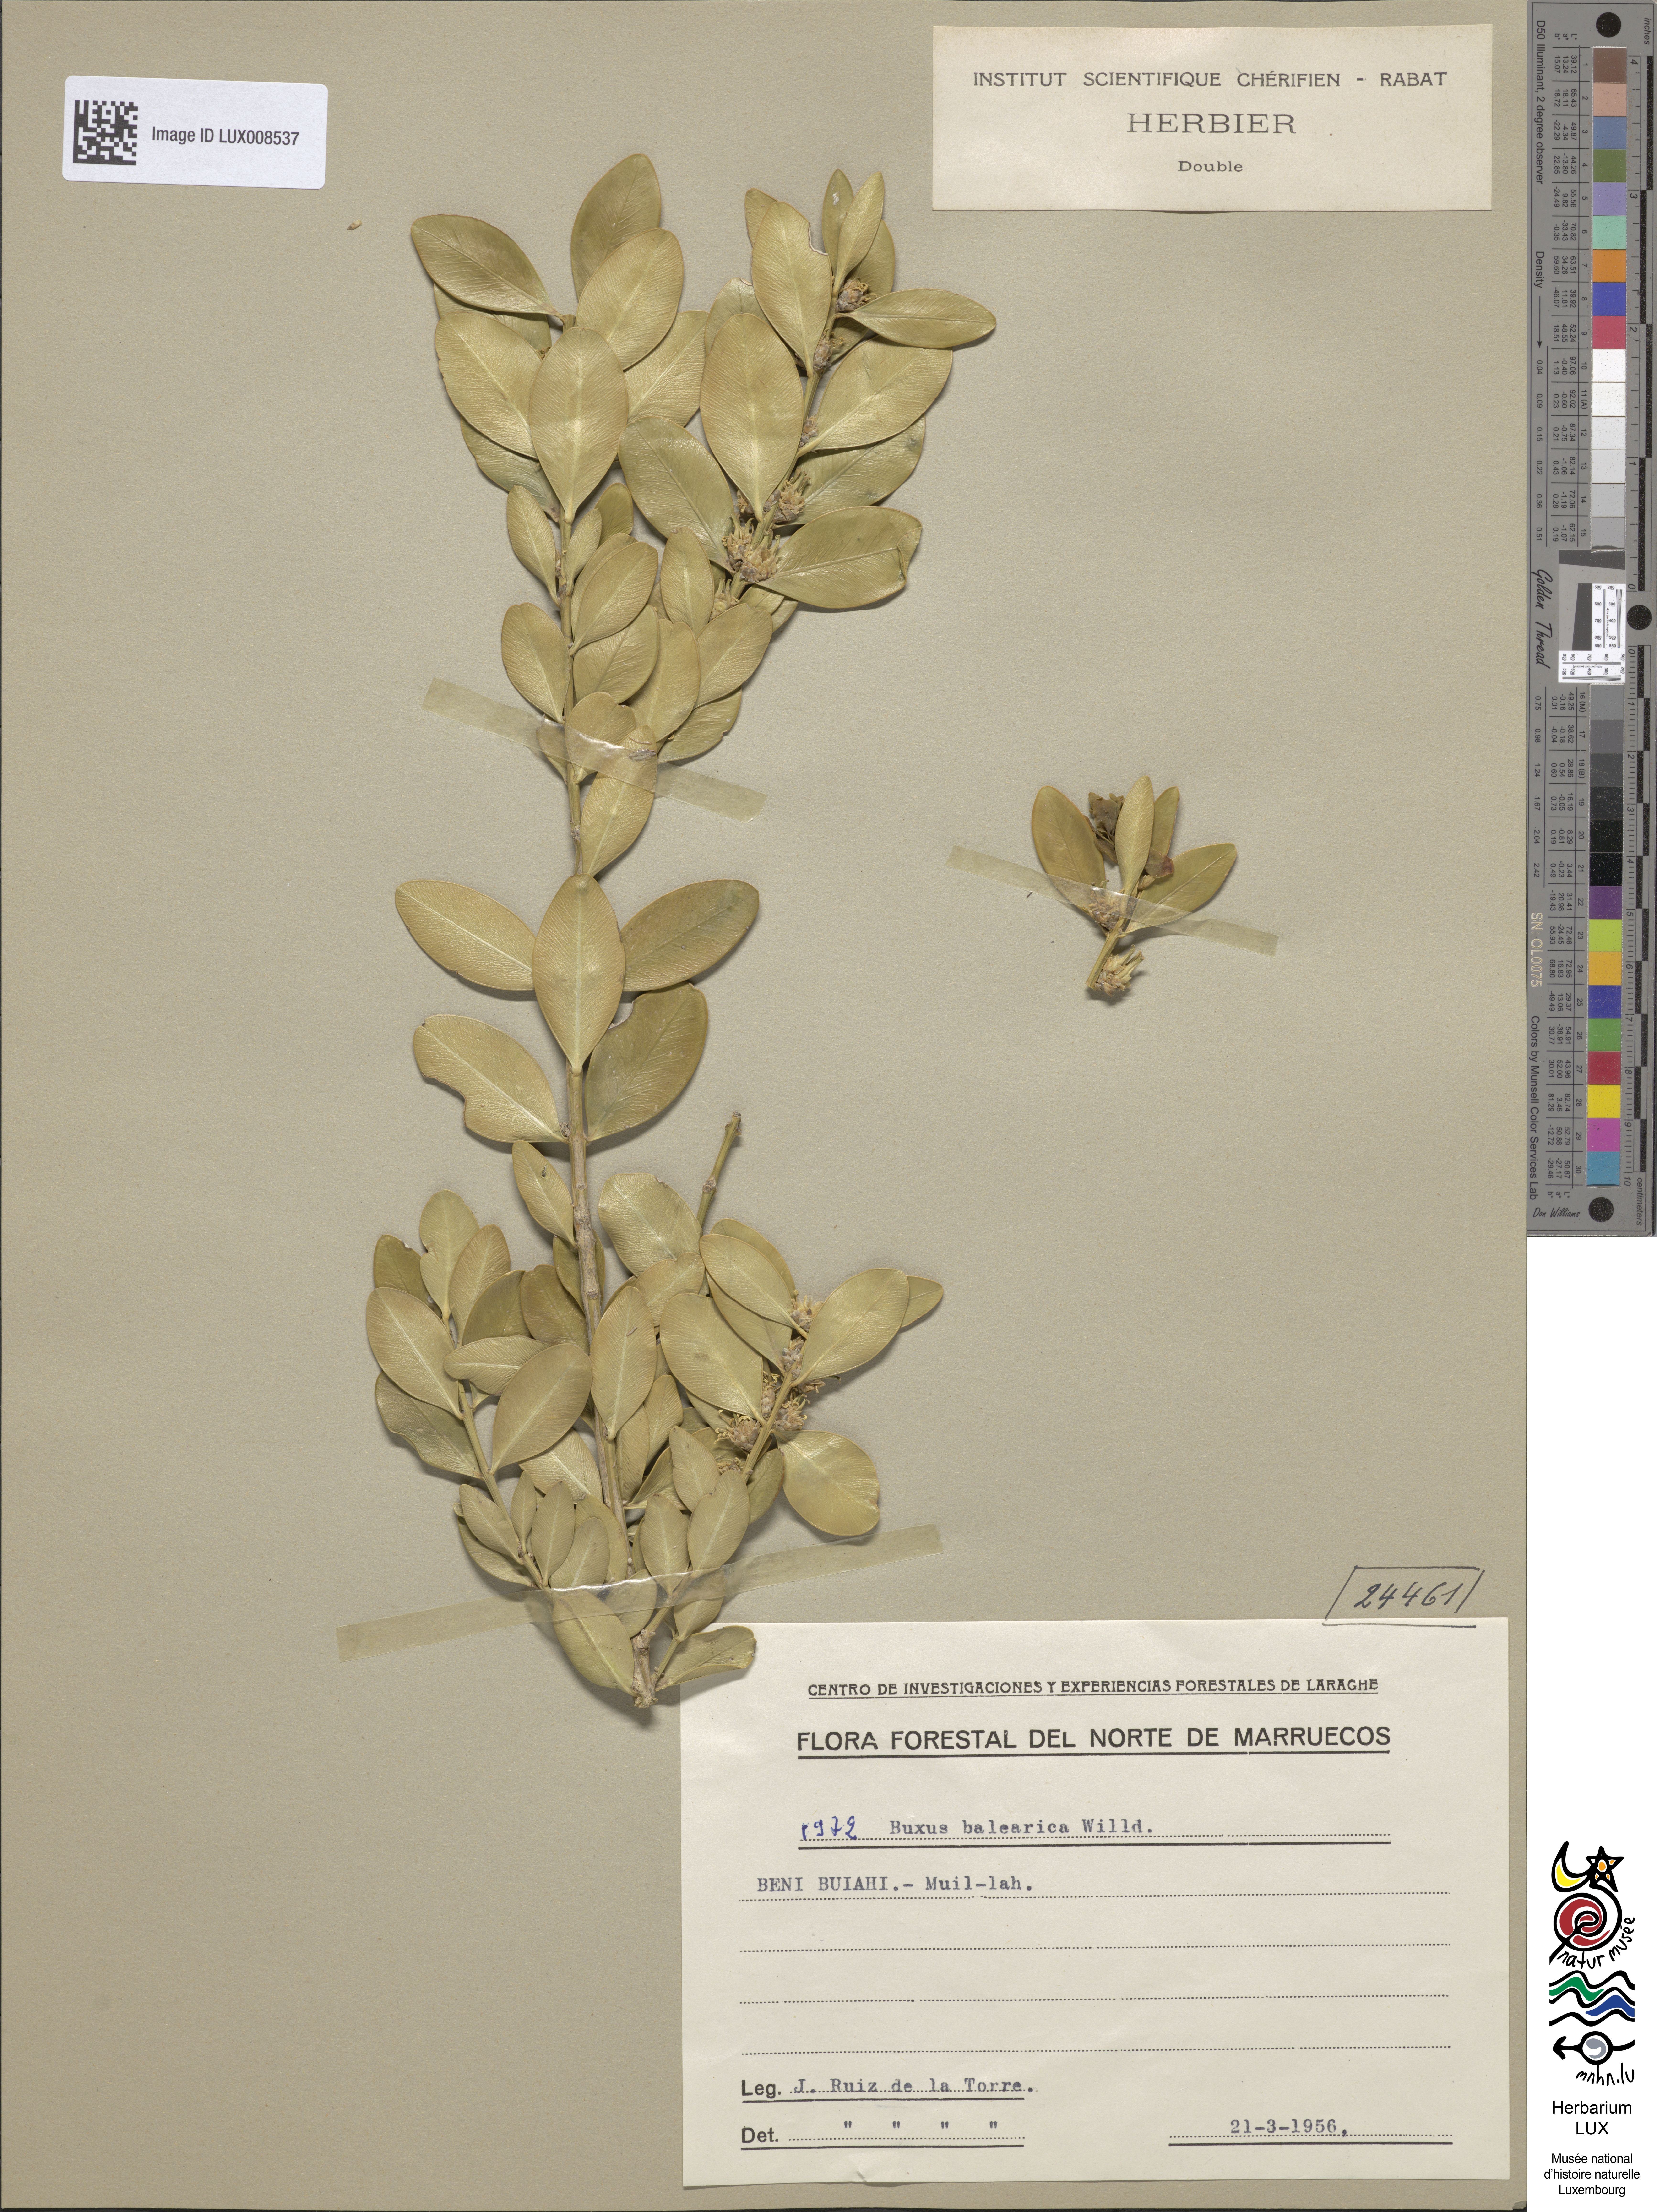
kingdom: Plantae
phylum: Tracheophyta
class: Magnoliopsida
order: Buxales
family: Buxaceae
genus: Buxus
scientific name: Buxus balearica
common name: Balearic box
